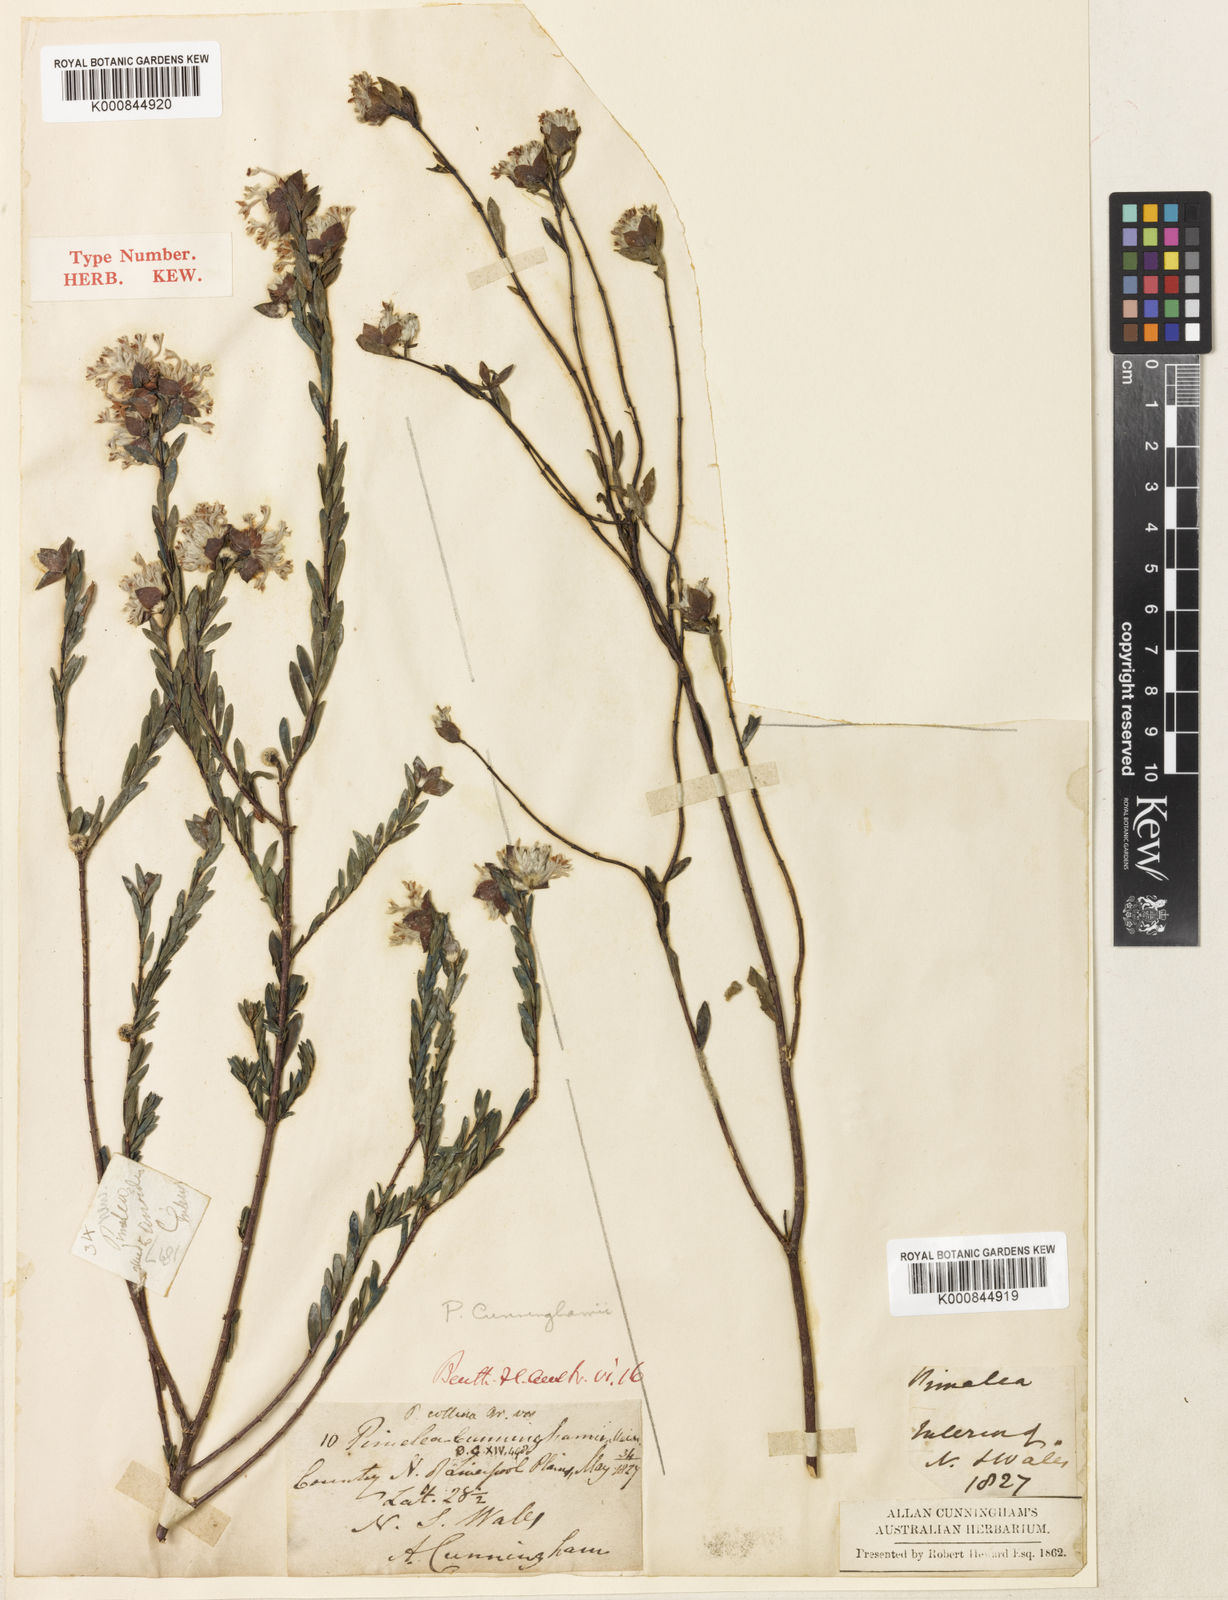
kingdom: Plantae
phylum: Tracheophyta
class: Magnoliopsida
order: Malvales
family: Thymelaeaceae
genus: Pimelea
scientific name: Pimelea linifolia
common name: Queen-of-the-bush
